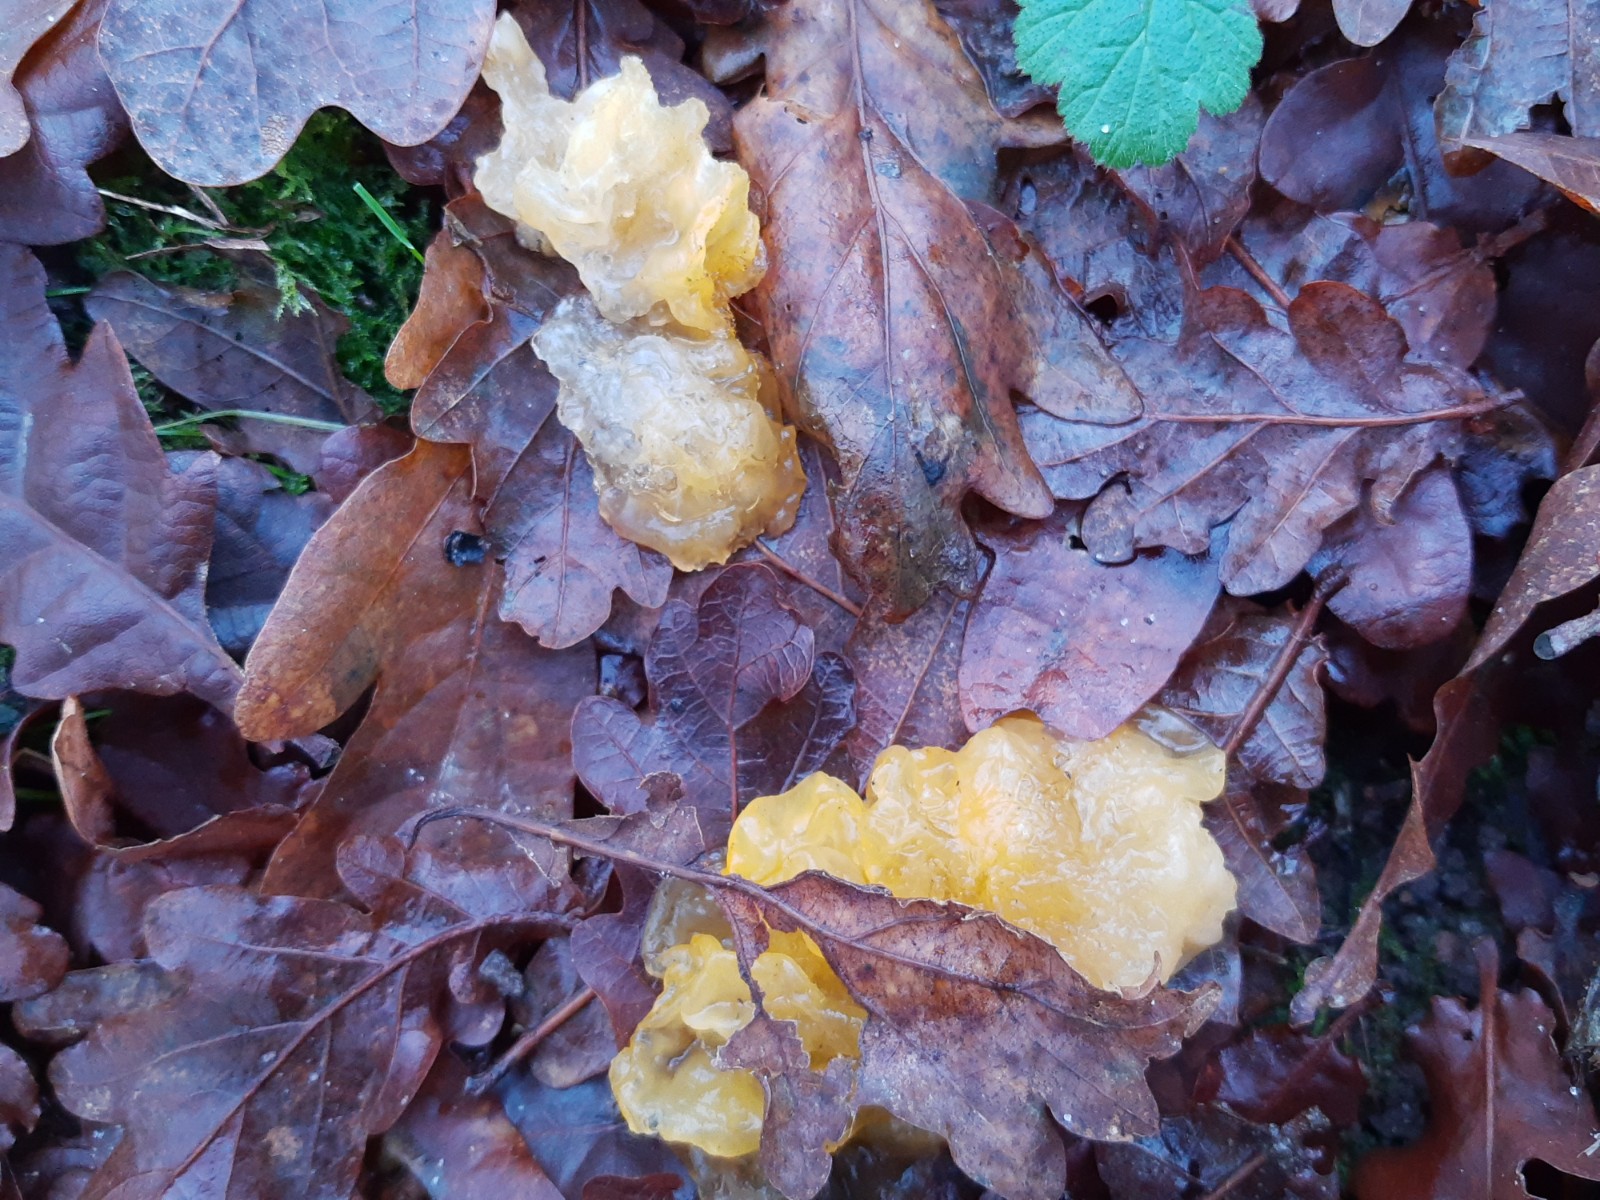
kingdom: Fungi
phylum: Basidiomycota
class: Tremellomycetes
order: Tremellales
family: Tremellaceae
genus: Tremella
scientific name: Tremella mesenterica
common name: gul bævresvamp
